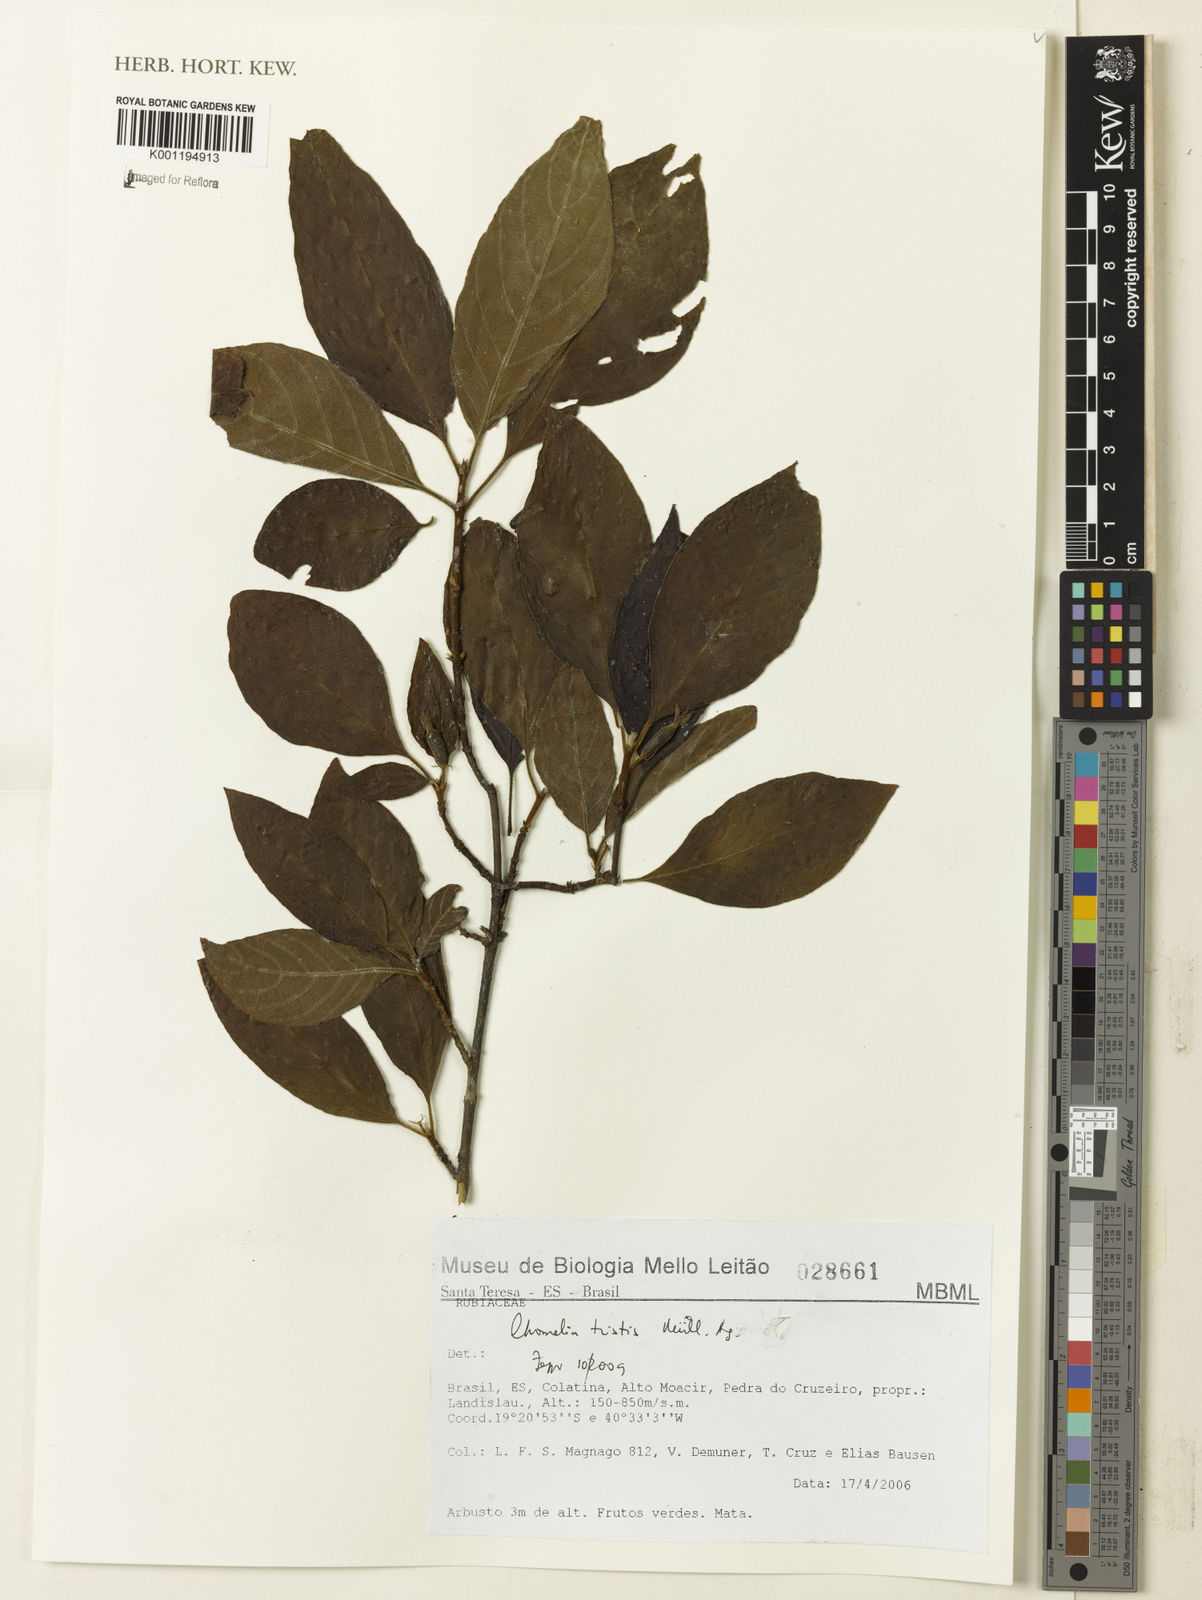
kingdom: Plantae
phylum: Tracheophyta
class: Magnoliopsida
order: Gentianales
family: Rubiaceae
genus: Chomelia
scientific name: Chomelia
